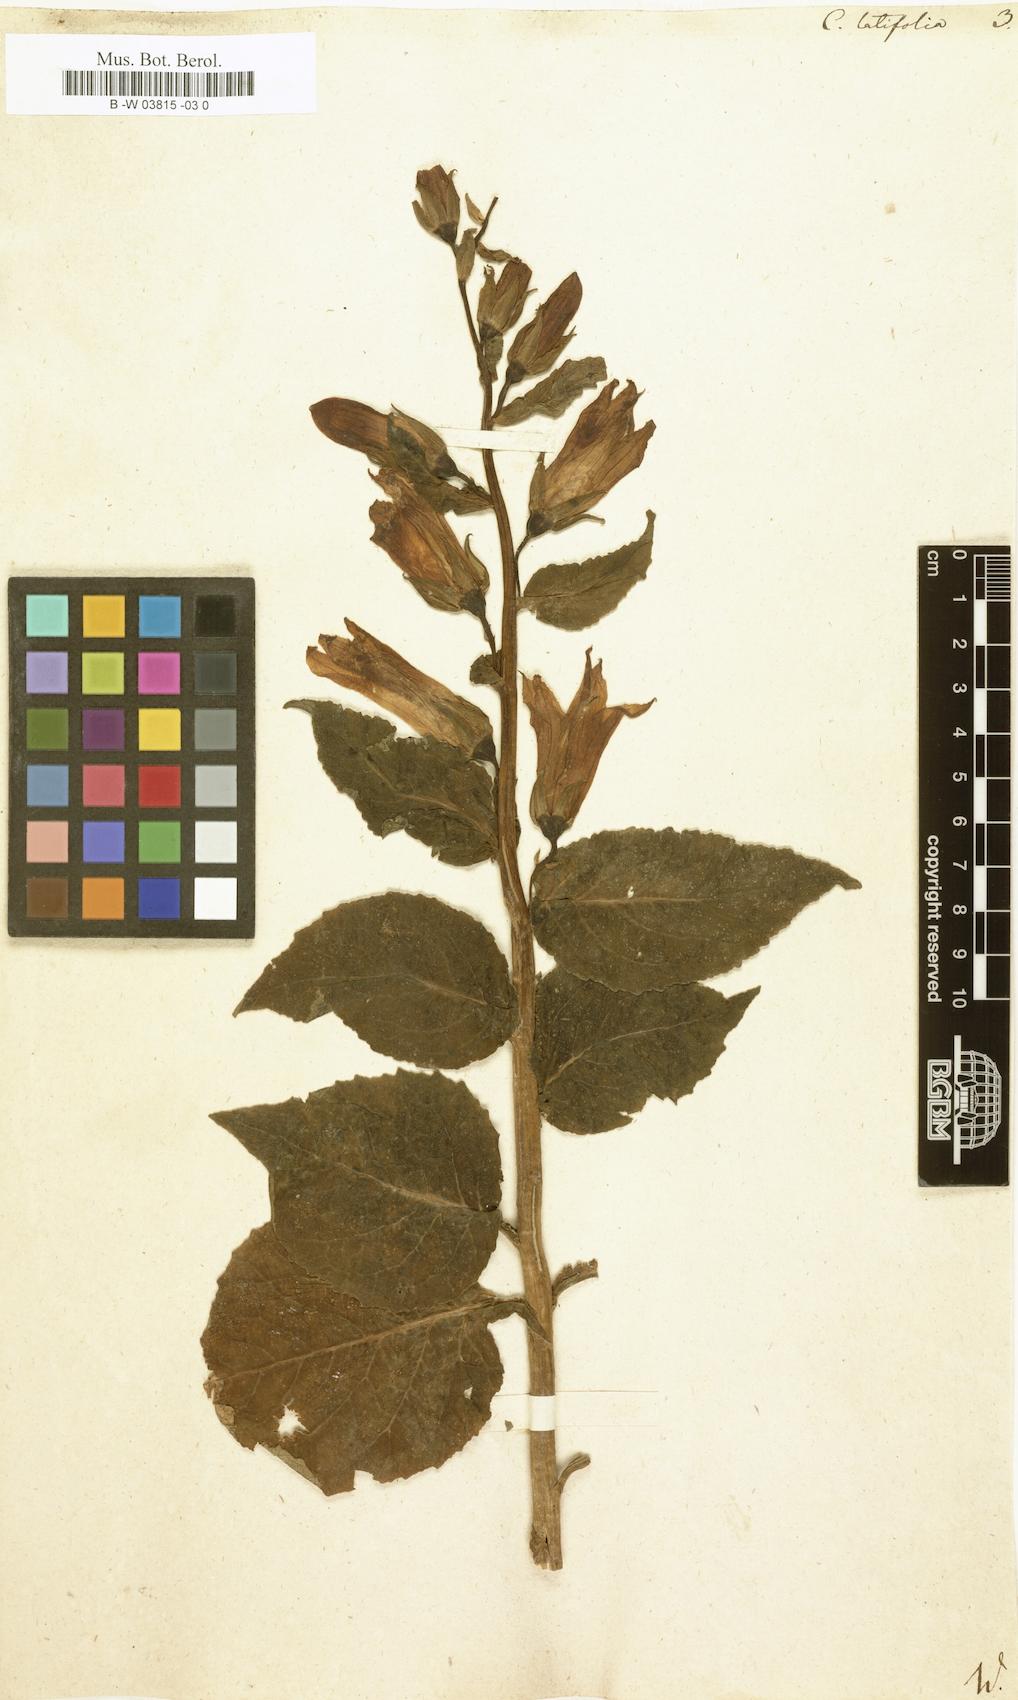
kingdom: Plantae
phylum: Tracheophyta
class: Magnoliopsida
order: Asterales
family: Campanulaceae
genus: Campanula
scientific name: Campanula latifolia
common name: Giant bellflower
